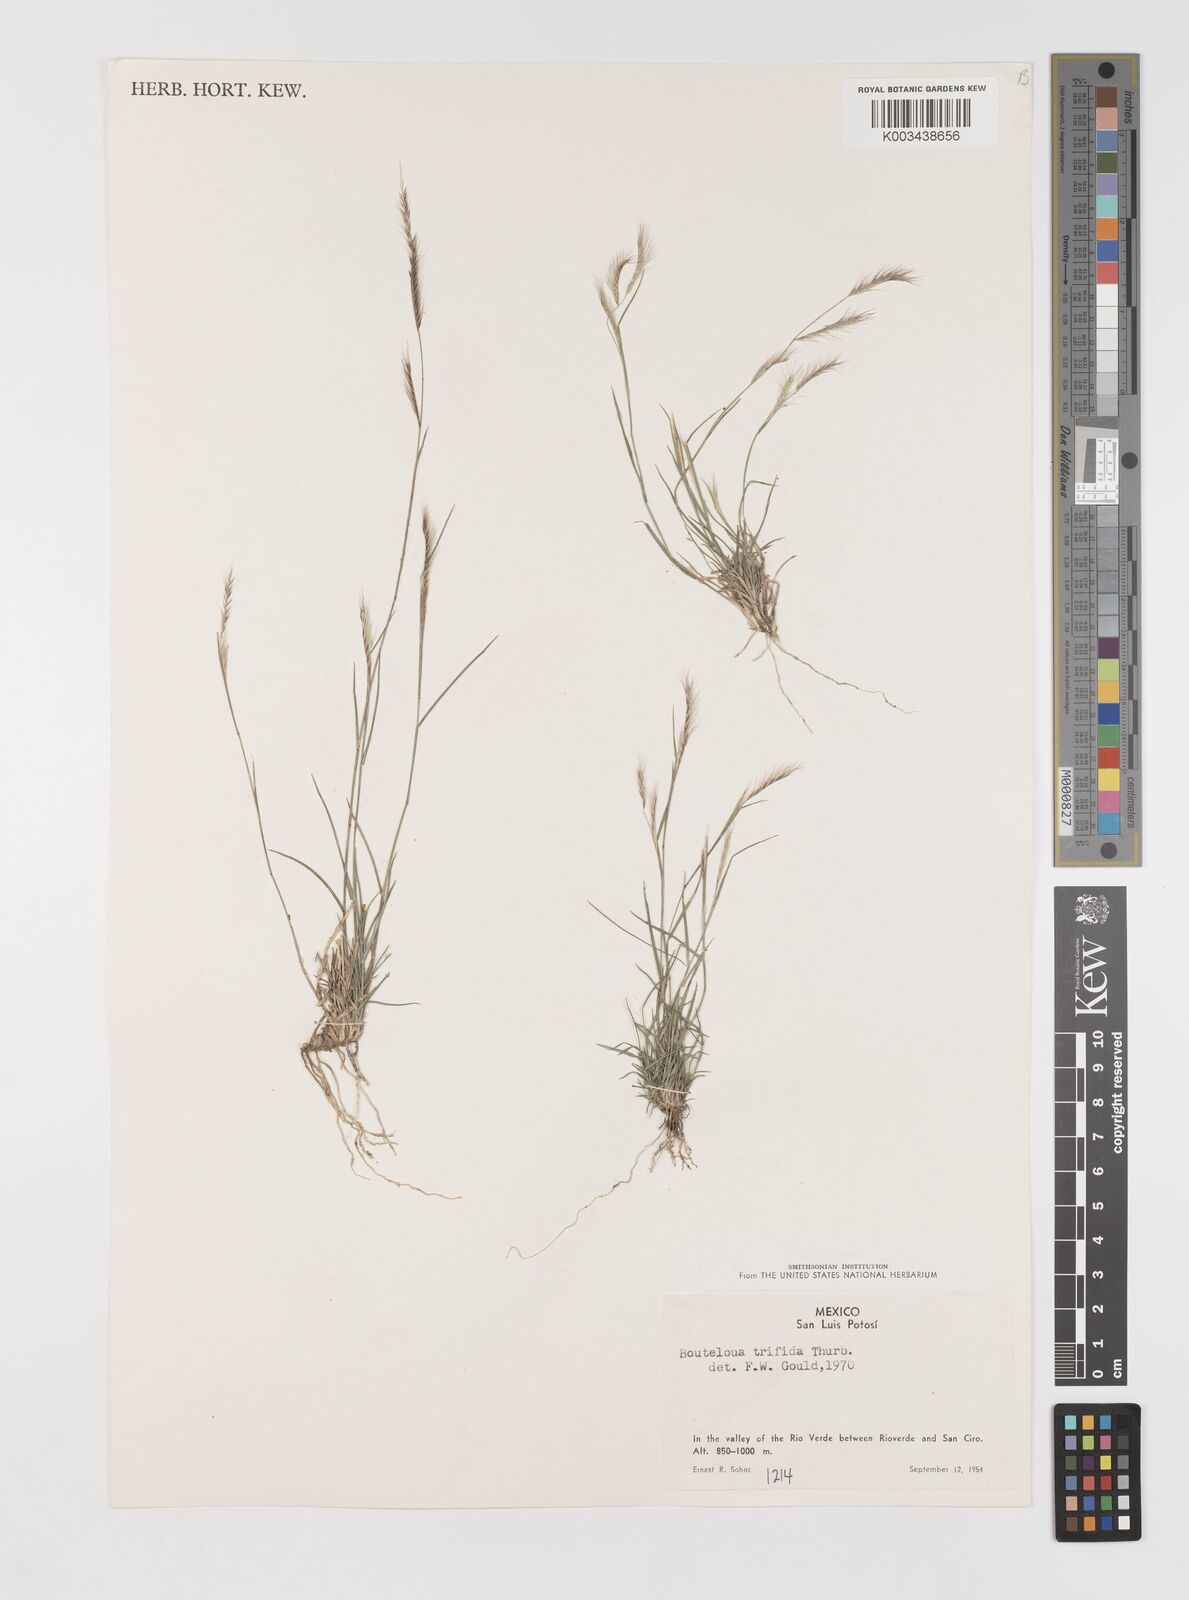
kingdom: Plantae
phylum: Tracheophyta
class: Liliopsida
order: Poales
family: Poaceae
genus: Bouteloua
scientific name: Bouteloua
